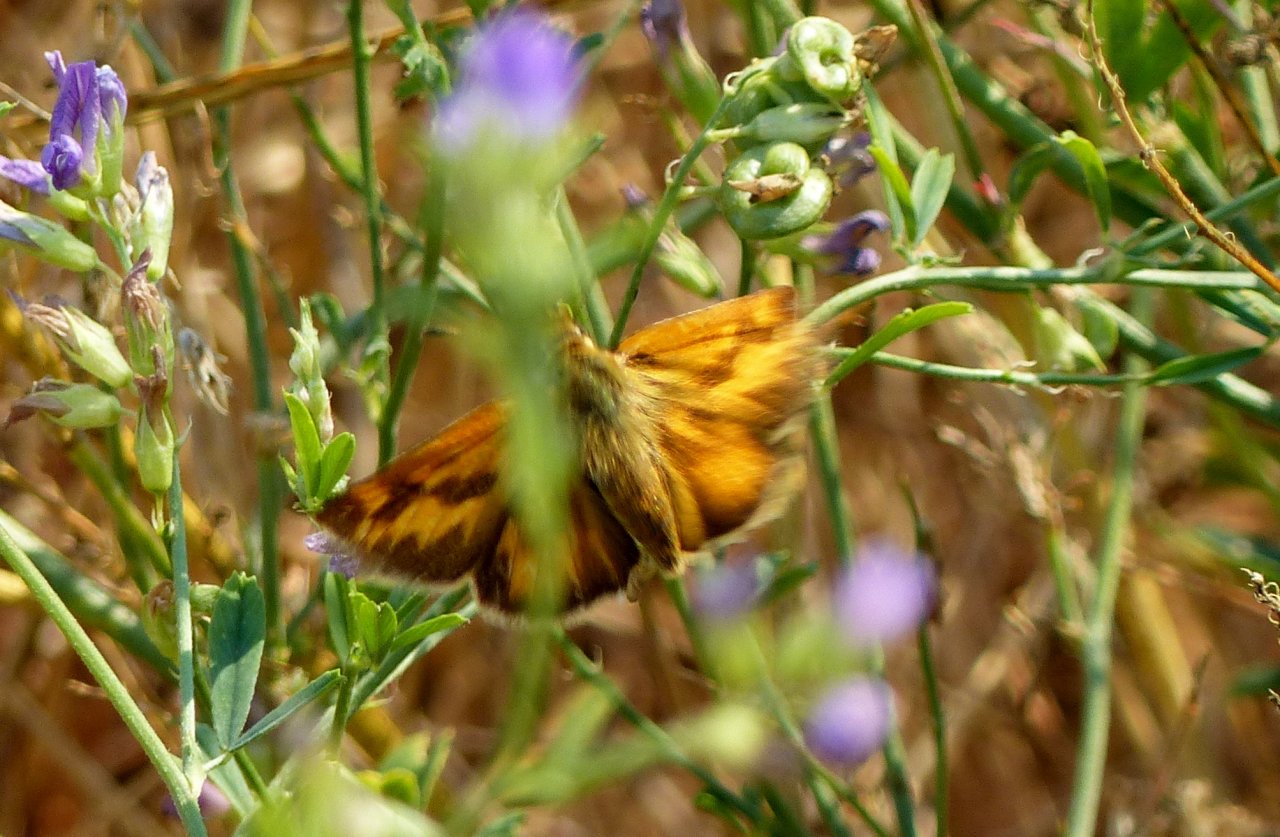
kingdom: Animalia
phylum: Arthropoda
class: Insecta
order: Lepidoptera
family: Hesperiidae
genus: Ochlodes
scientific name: Ochlodes sylvanoides
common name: Woodland Skipper
